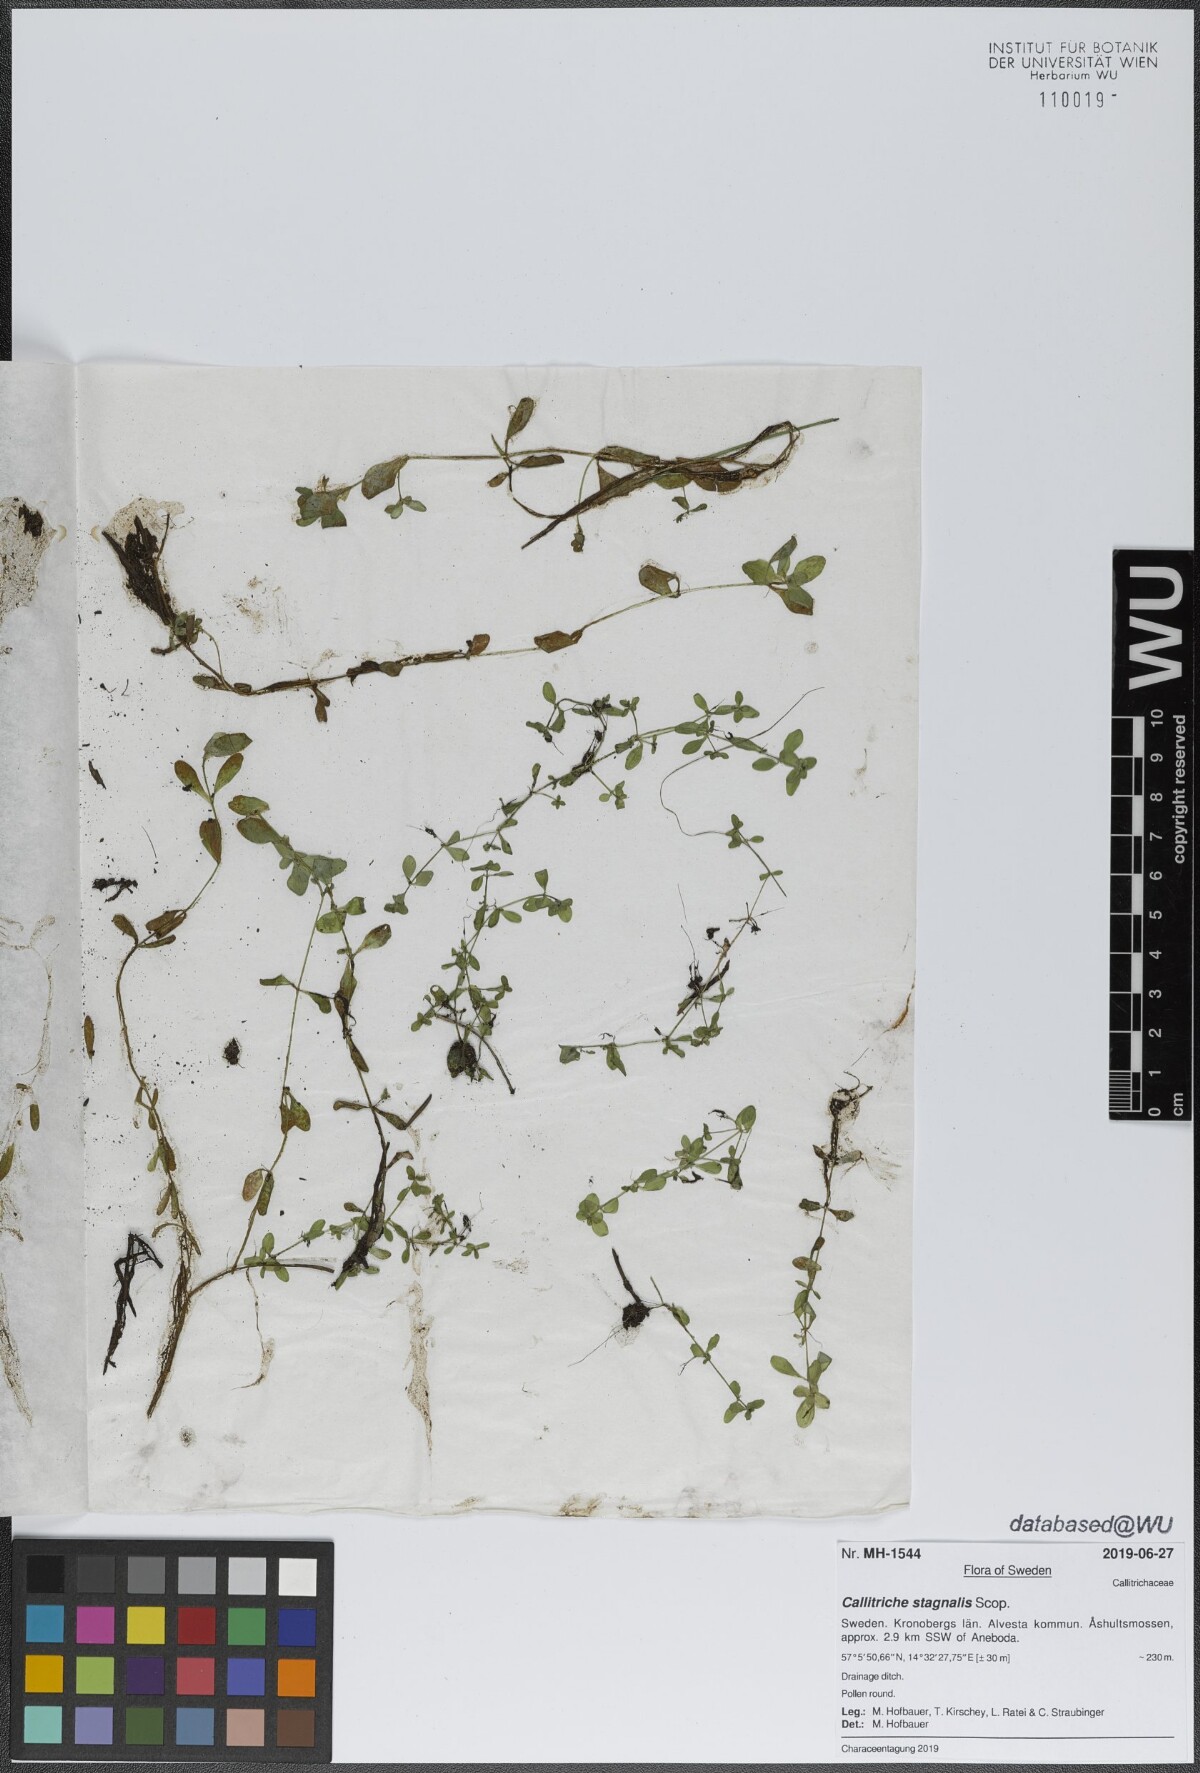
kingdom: Plantae
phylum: Tracheophyta
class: Magnoliopsida
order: Lamiales
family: Plantaginaceae
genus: Callitriche
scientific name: Callitriche stagnalis
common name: Common water-starwort
